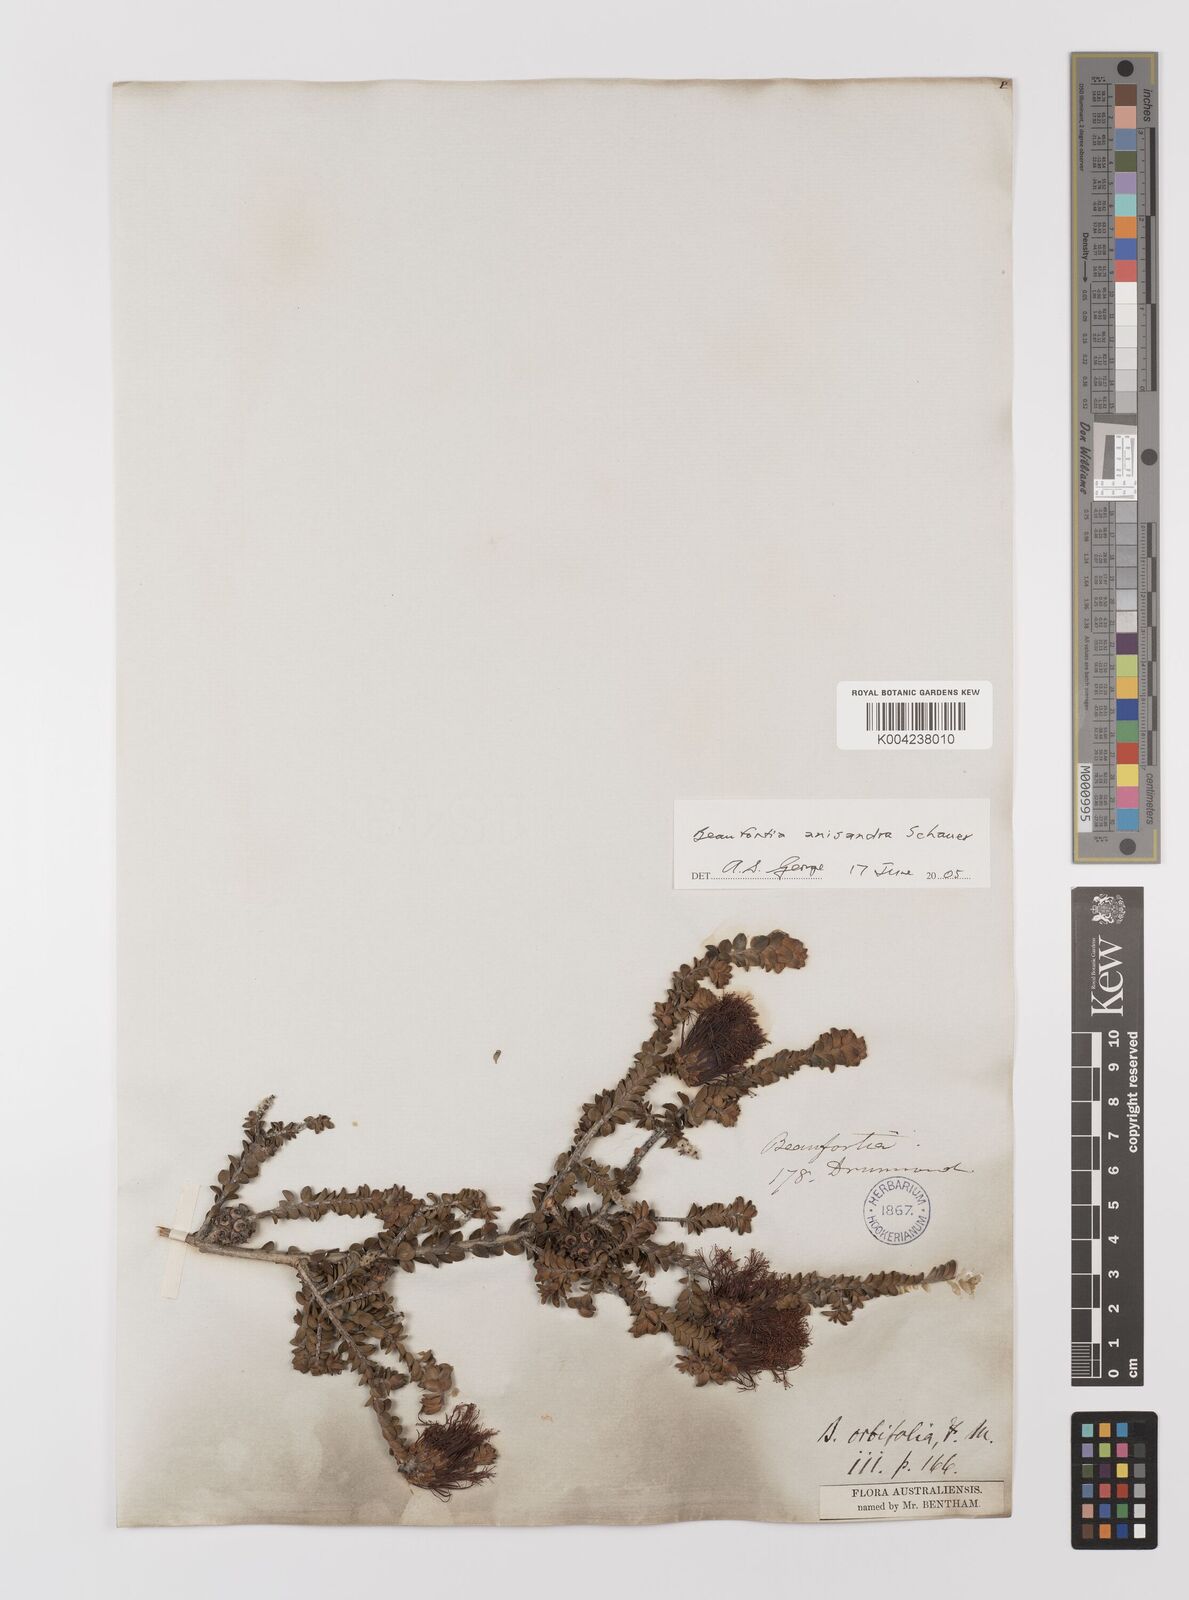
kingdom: Plantae
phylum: Tracheophyta
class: Magnoliopsida
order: Myrtales
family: Myrtaceae
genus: Melaleuca
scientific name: Melaleuca anisandra
